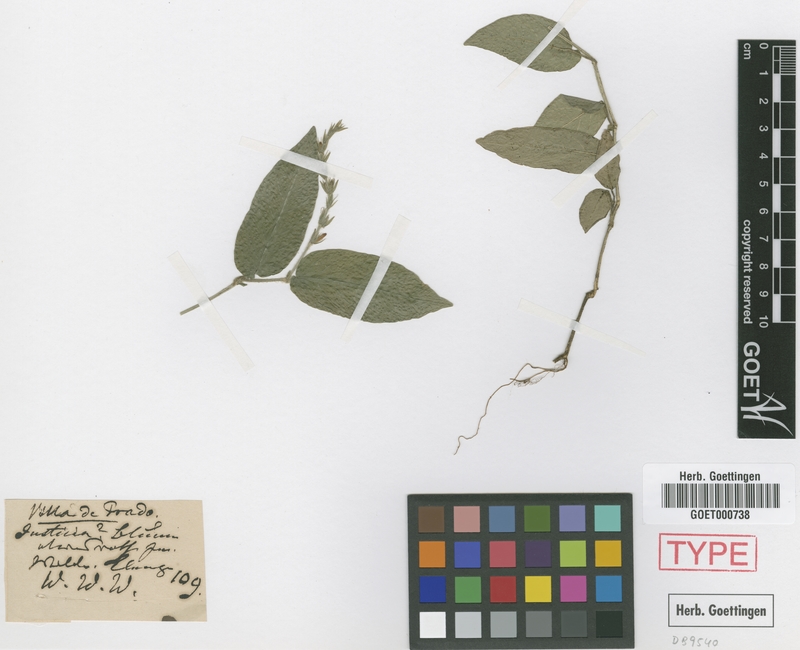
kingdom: Plantae
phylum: Tracheophyta
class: Magnoliopsida
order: Lamiales
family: Acanthaceae
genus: Justicia
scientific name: Justicia genuflexa
